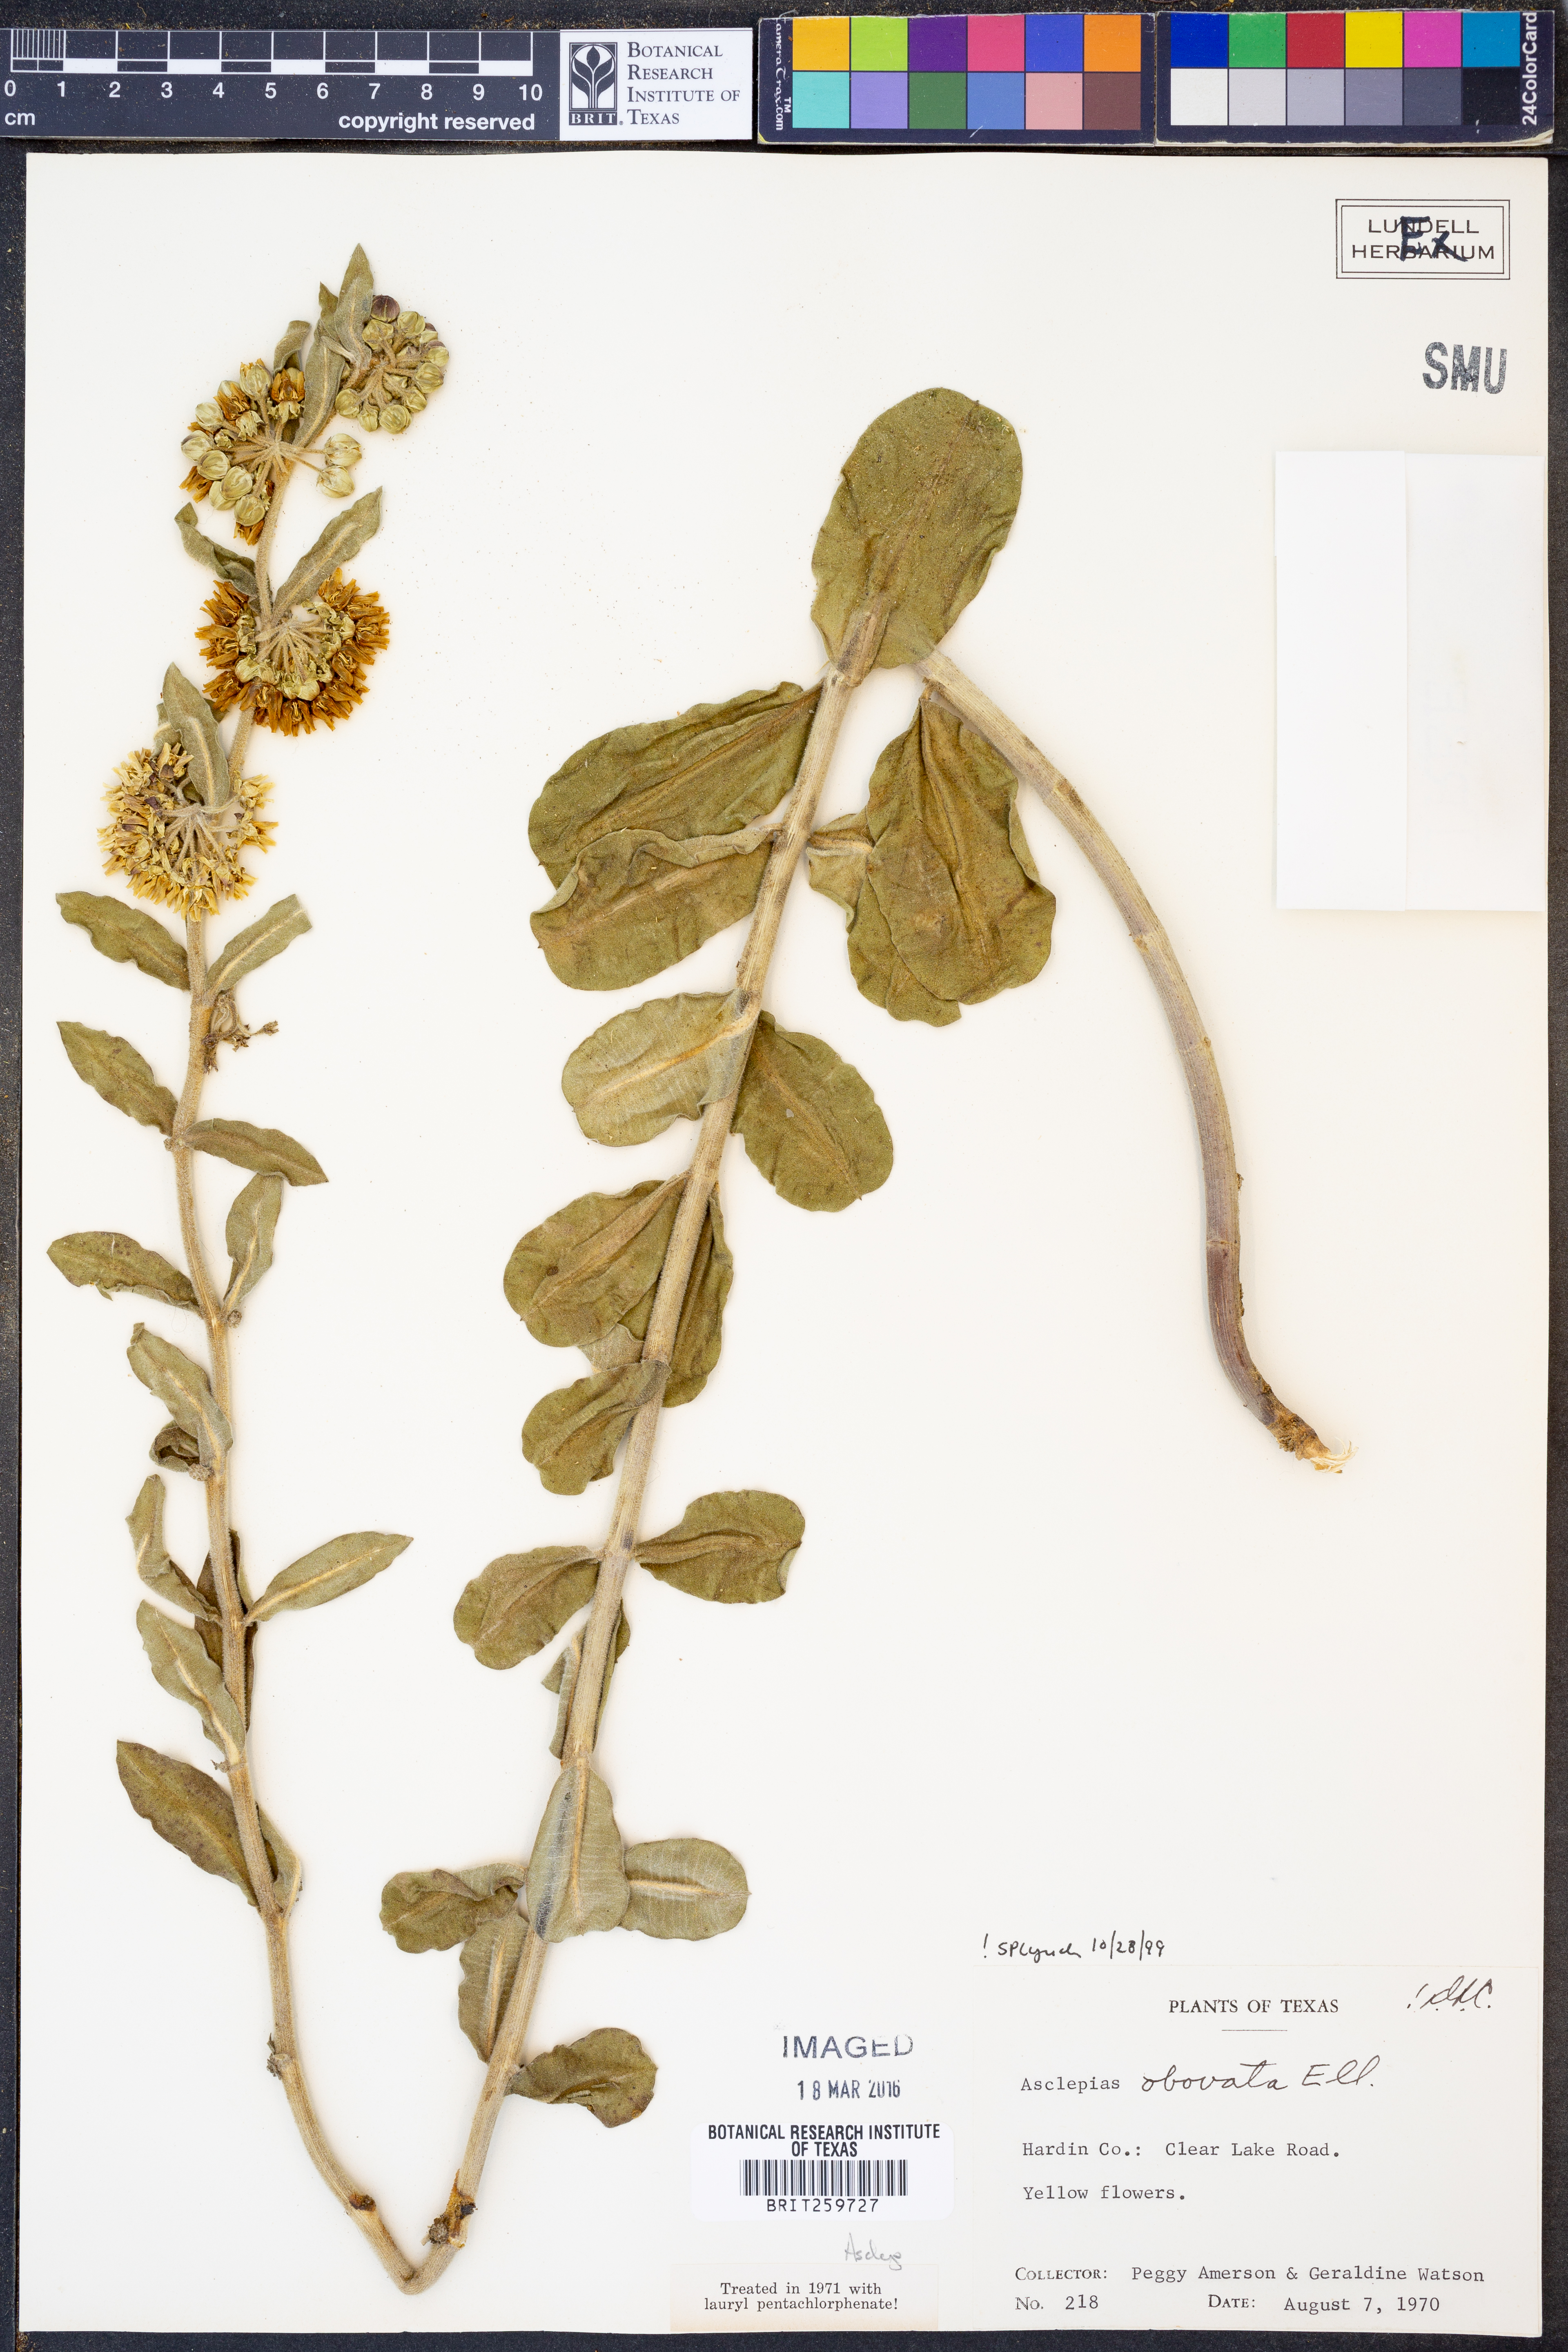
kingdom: Plantae
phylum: Tracheophyta
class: Magnoliopsida
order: Gentianales
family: Apocynaceae
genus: Asclepias
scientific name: Asclepias obovata
